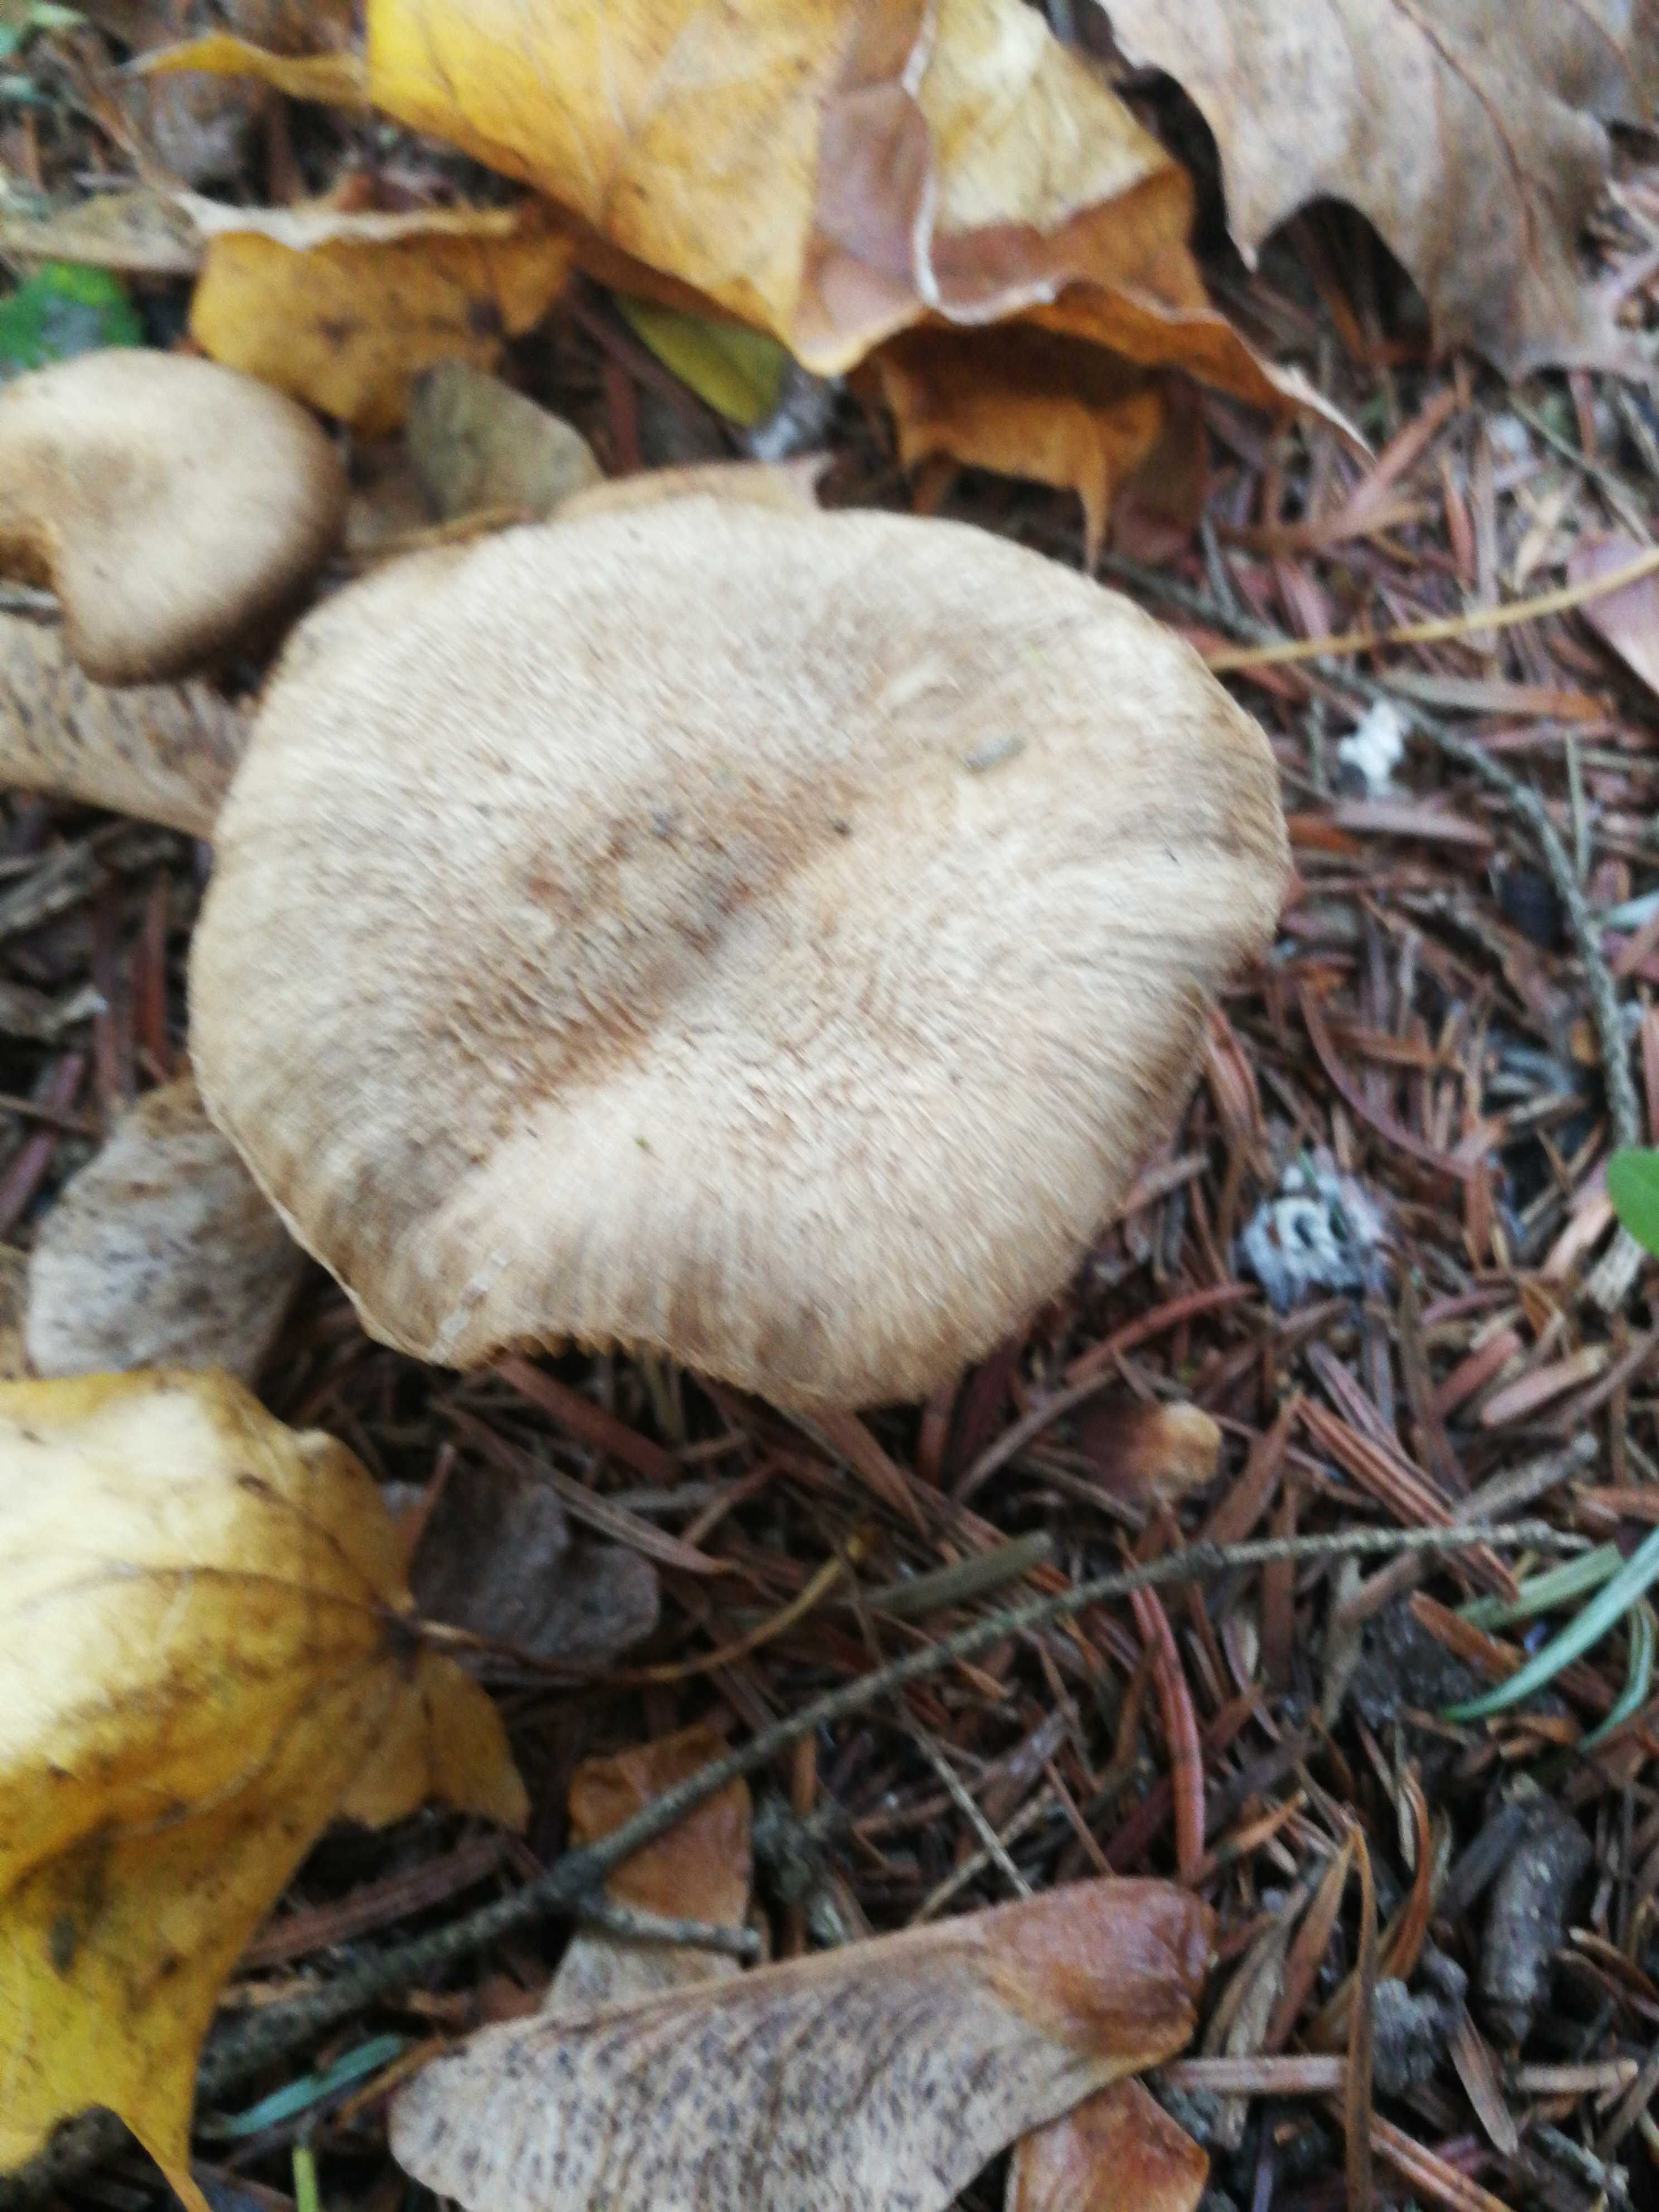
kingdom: Fungi
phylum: Basidiomycota
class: Agaricomycetes
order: Agaricales
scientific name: Agaricales
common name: champignonordenen
